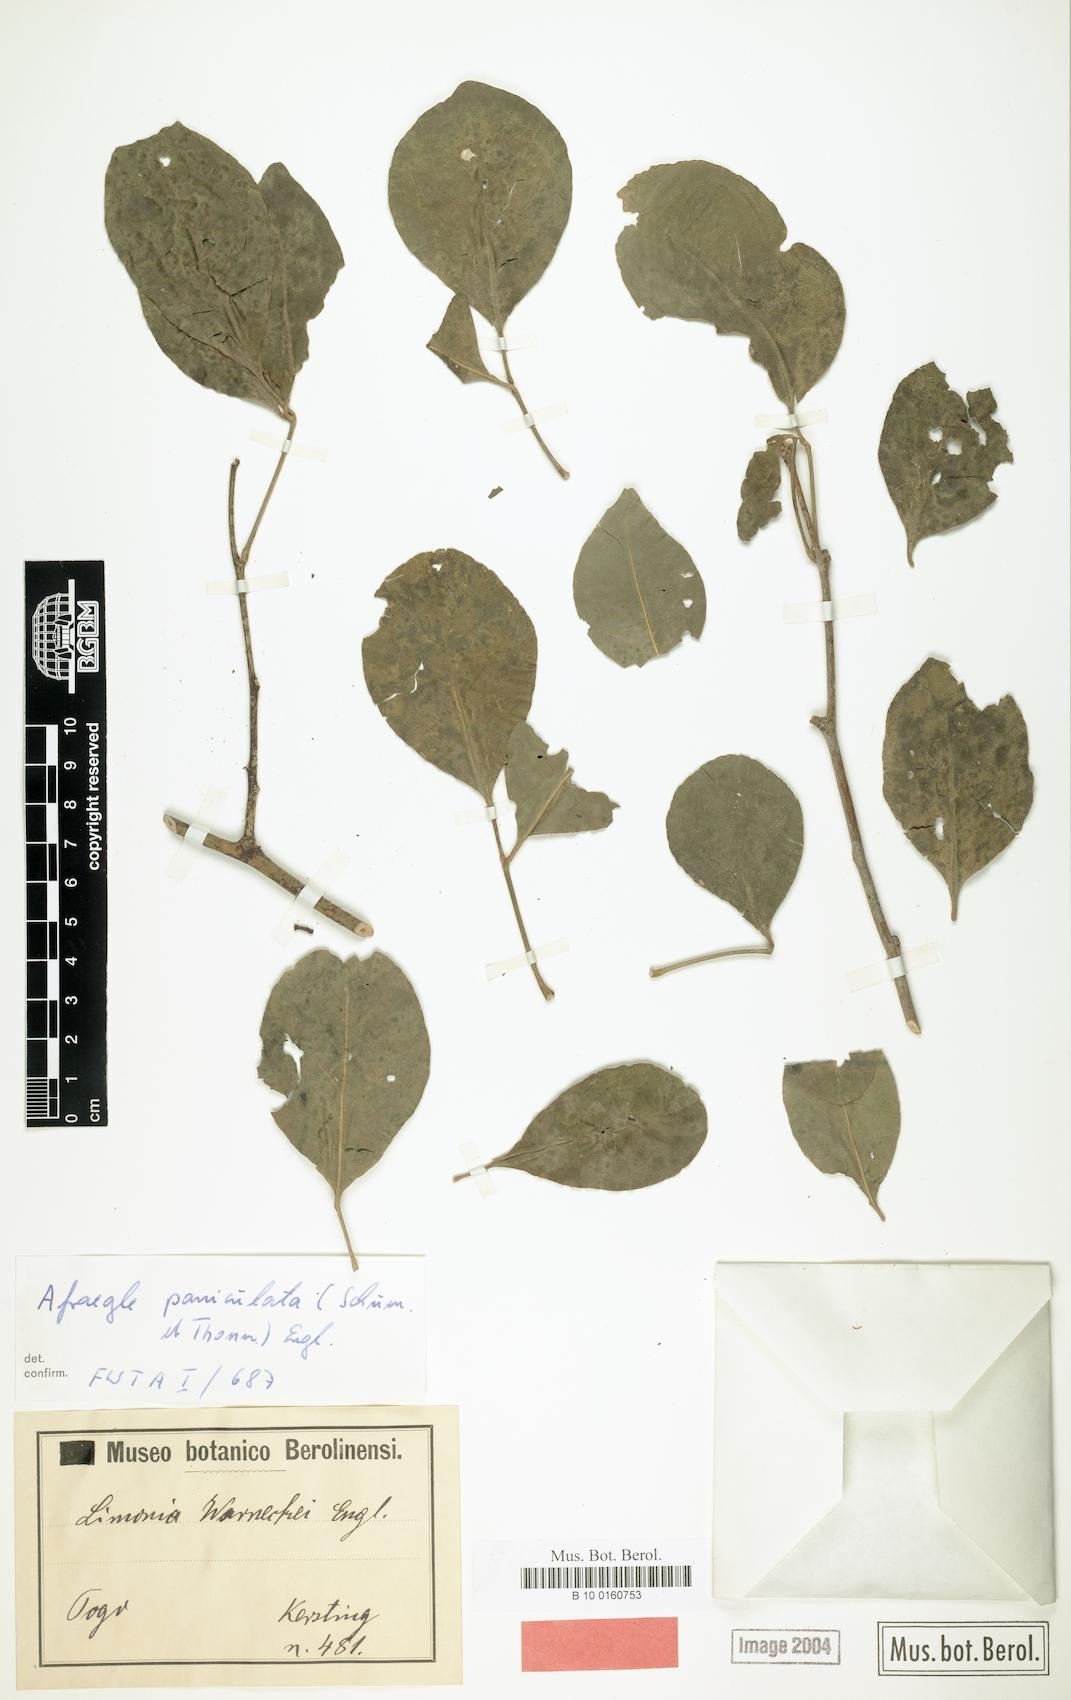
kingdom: Plantae
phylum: Tracheophyta
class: Magnoliopsida
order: Sapindales
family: Rutaceae
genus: Afraegle
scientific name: Afraegle paniculata
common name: Guin-guin
